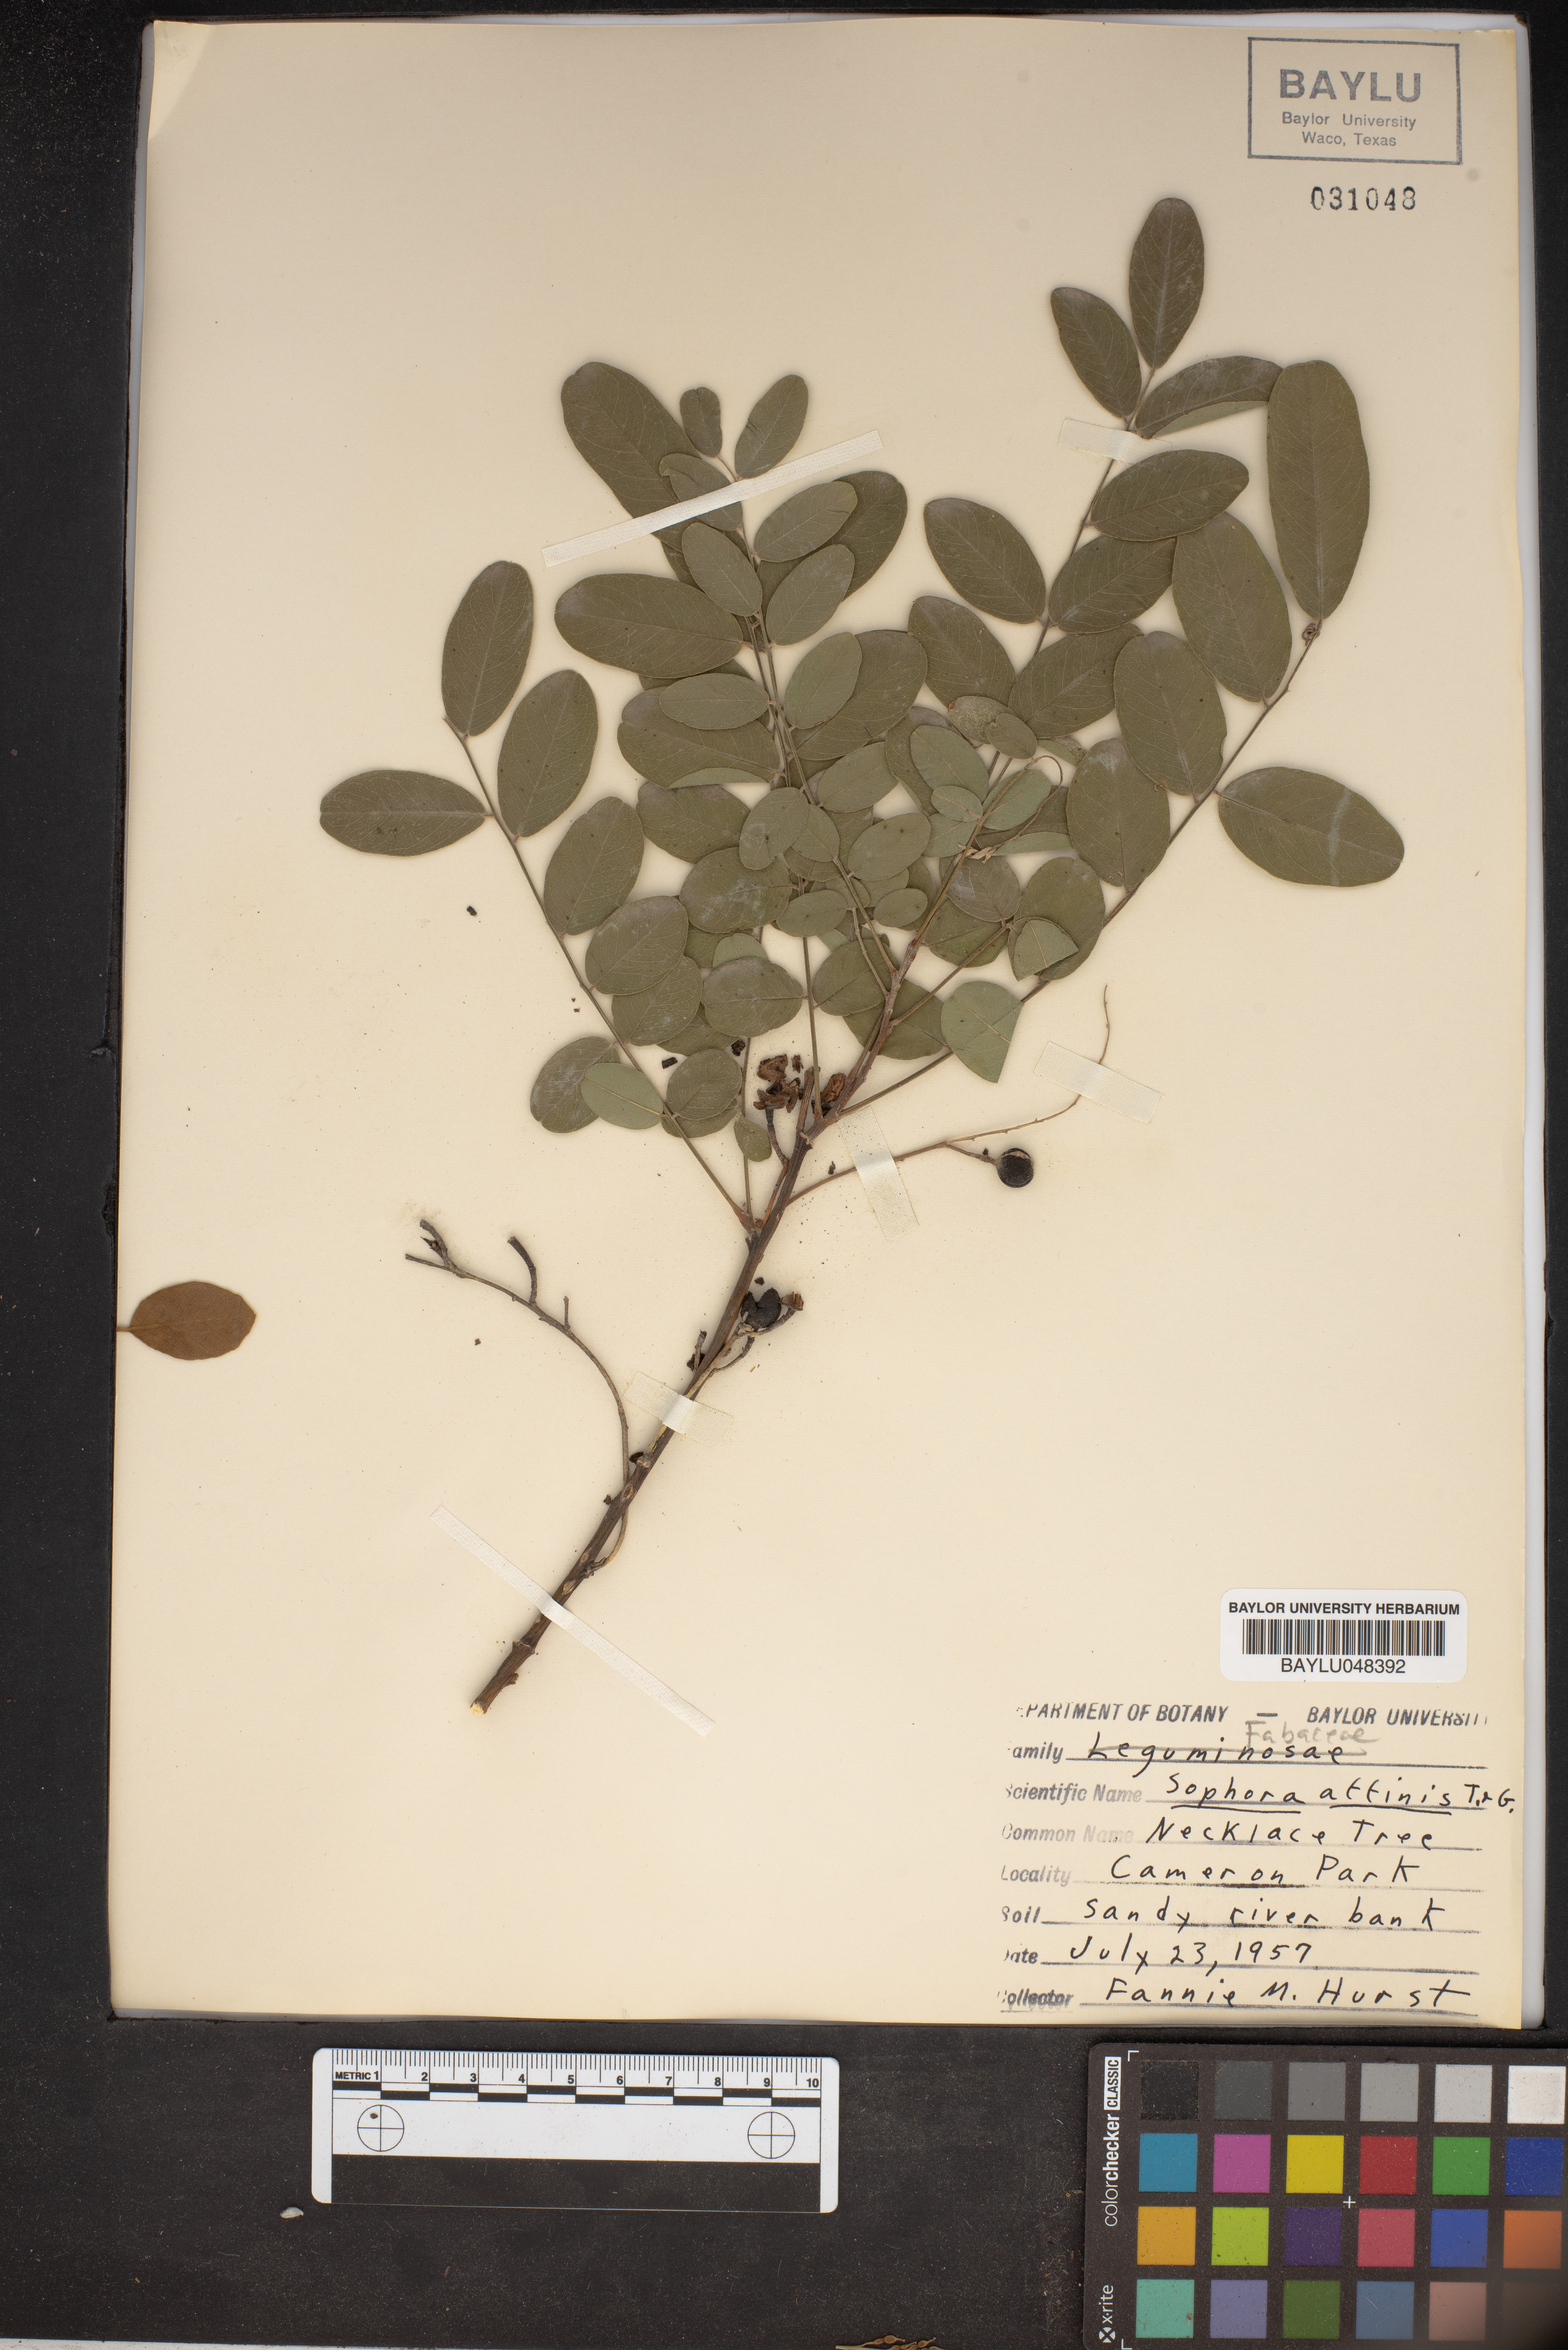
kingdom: Plantae
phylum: Tracheophyta
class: Magnoliopsida
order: Fabales
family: Fabaceae
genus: Styphnolobium
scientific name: Styphnolobium affine
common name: Texas sophora
